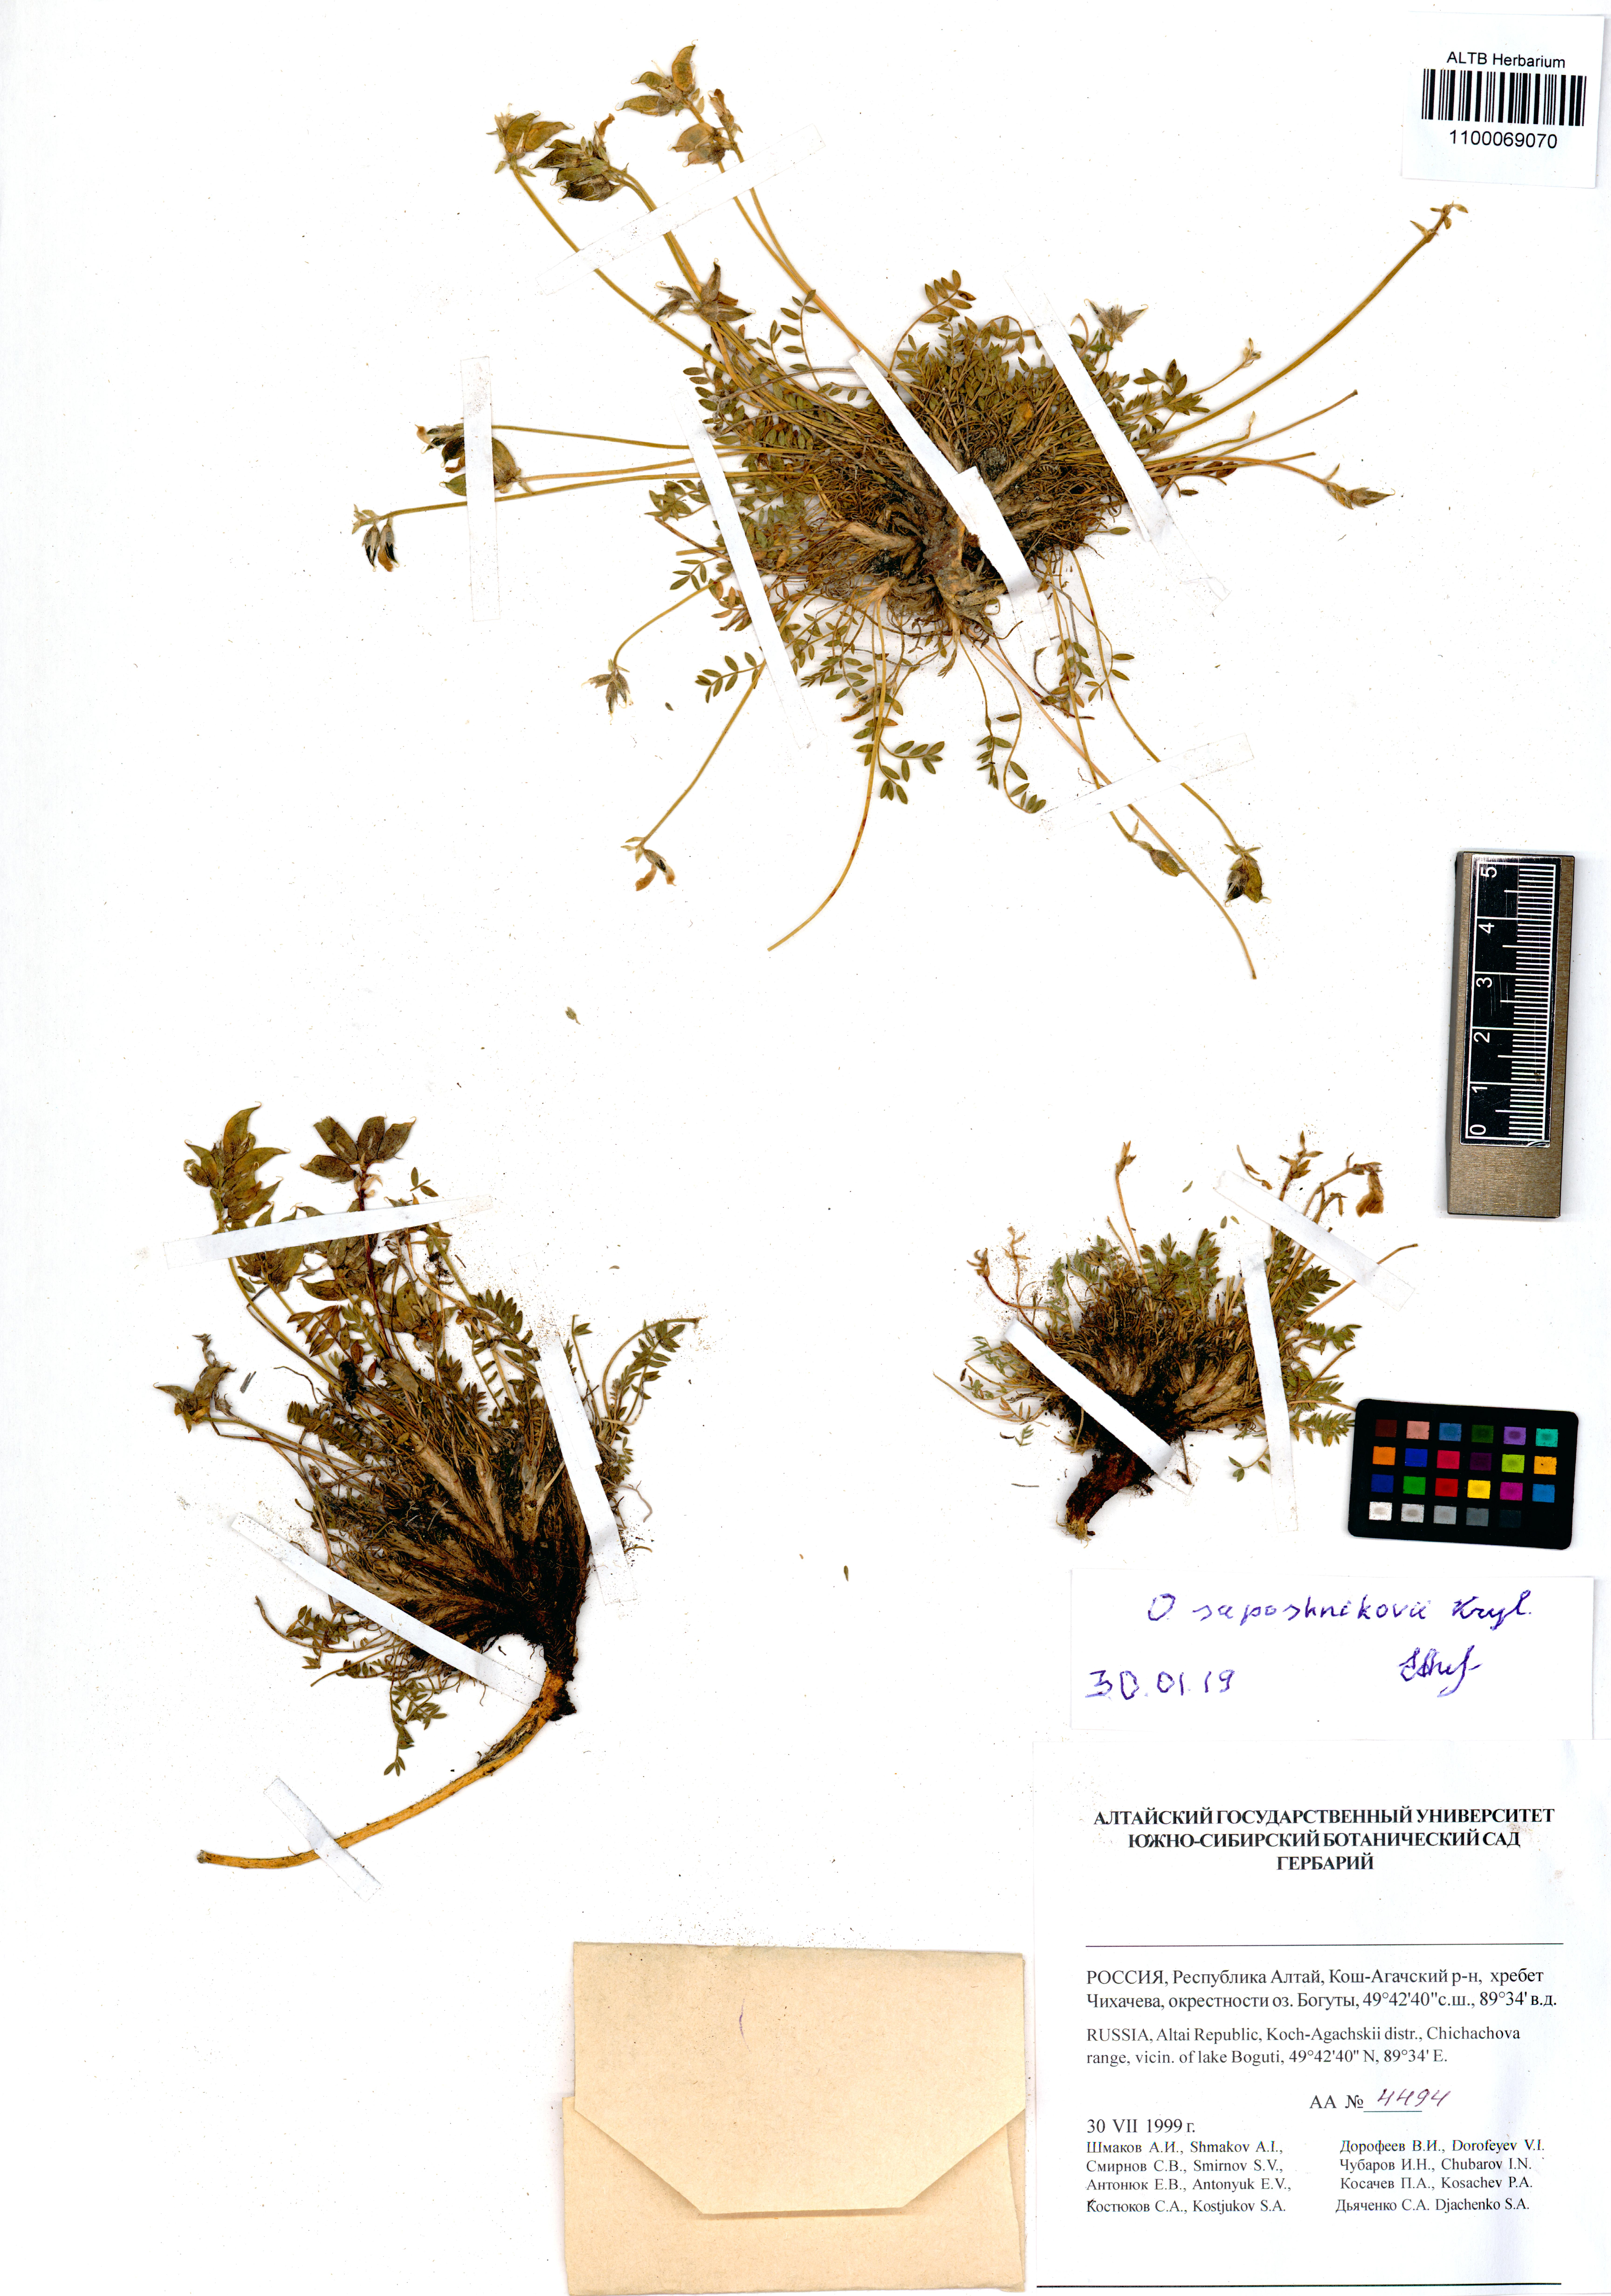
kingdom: Plantae
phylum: Tracheophyta
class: Magnoliopsida
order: Fabales
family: Fabaceae
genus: Oxytropis
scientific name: Oxytropis saposhnikovii
